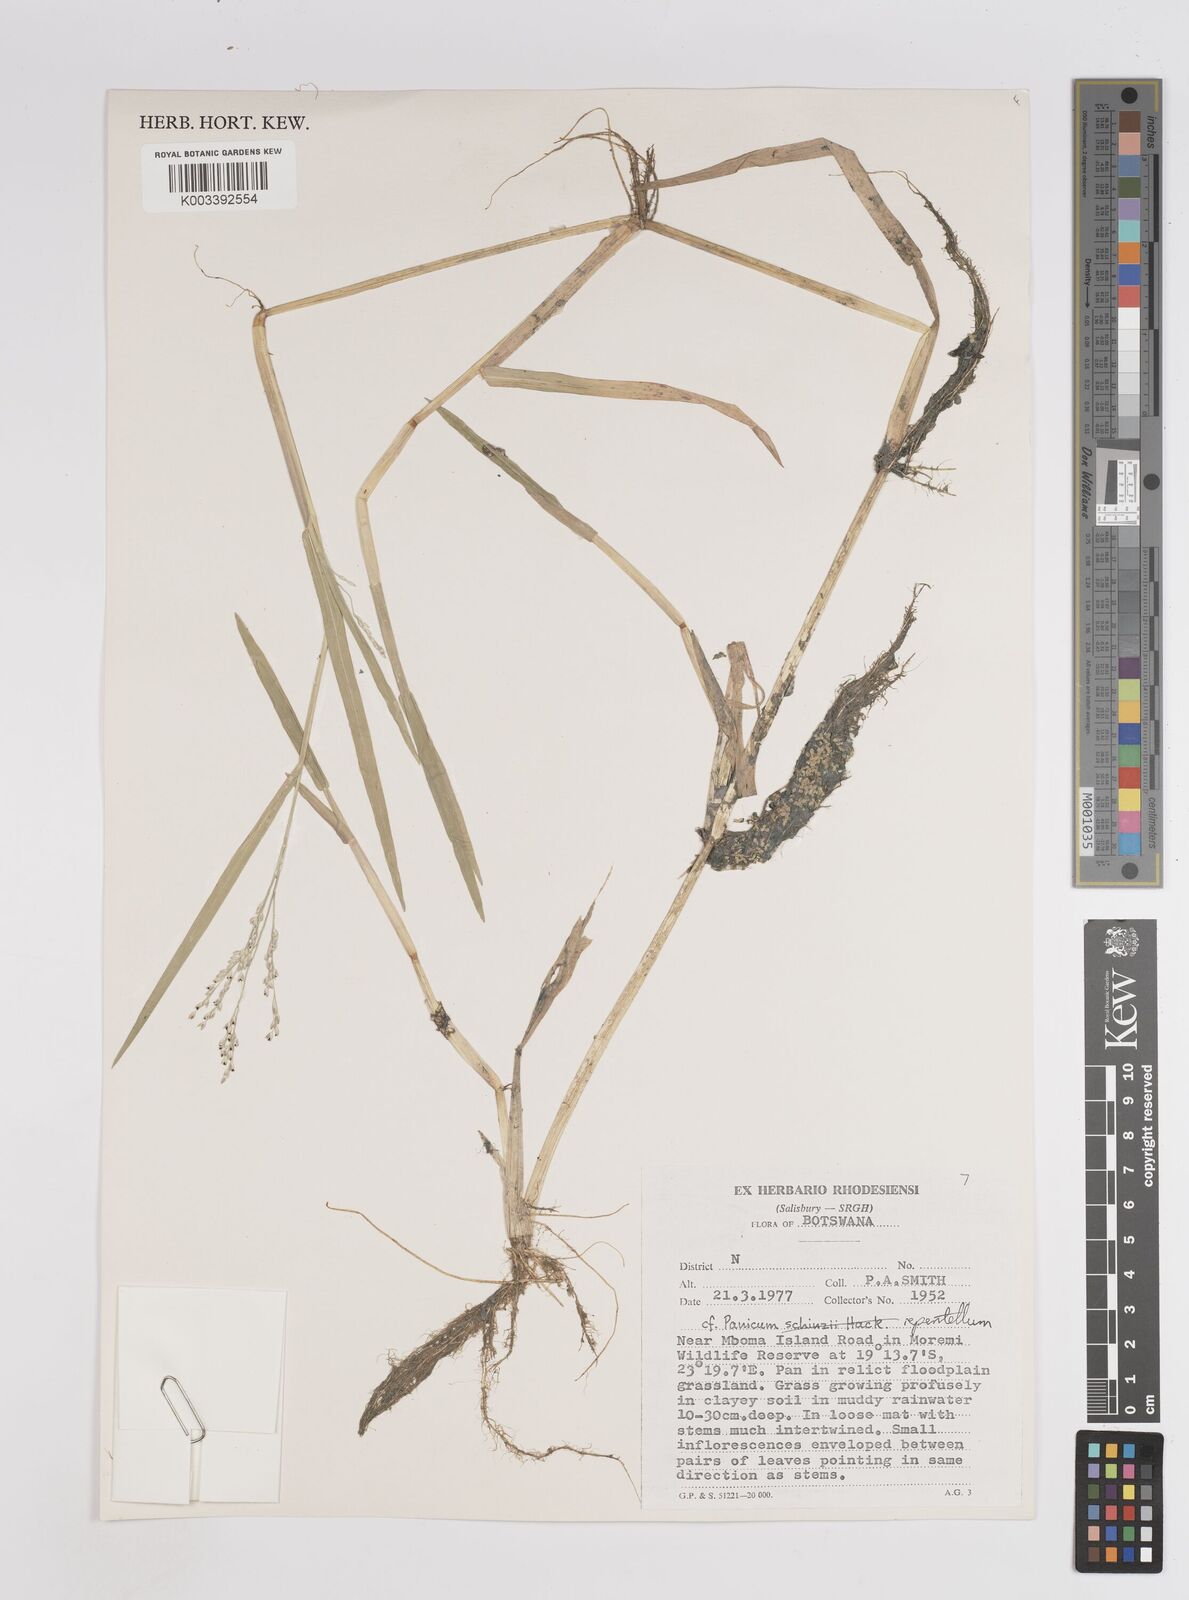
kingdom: Plantae
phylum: Tracheophyta
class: Liliopsida
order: Poales
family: Poaceae
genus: Panicum
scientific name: Panicum hygrocharis
